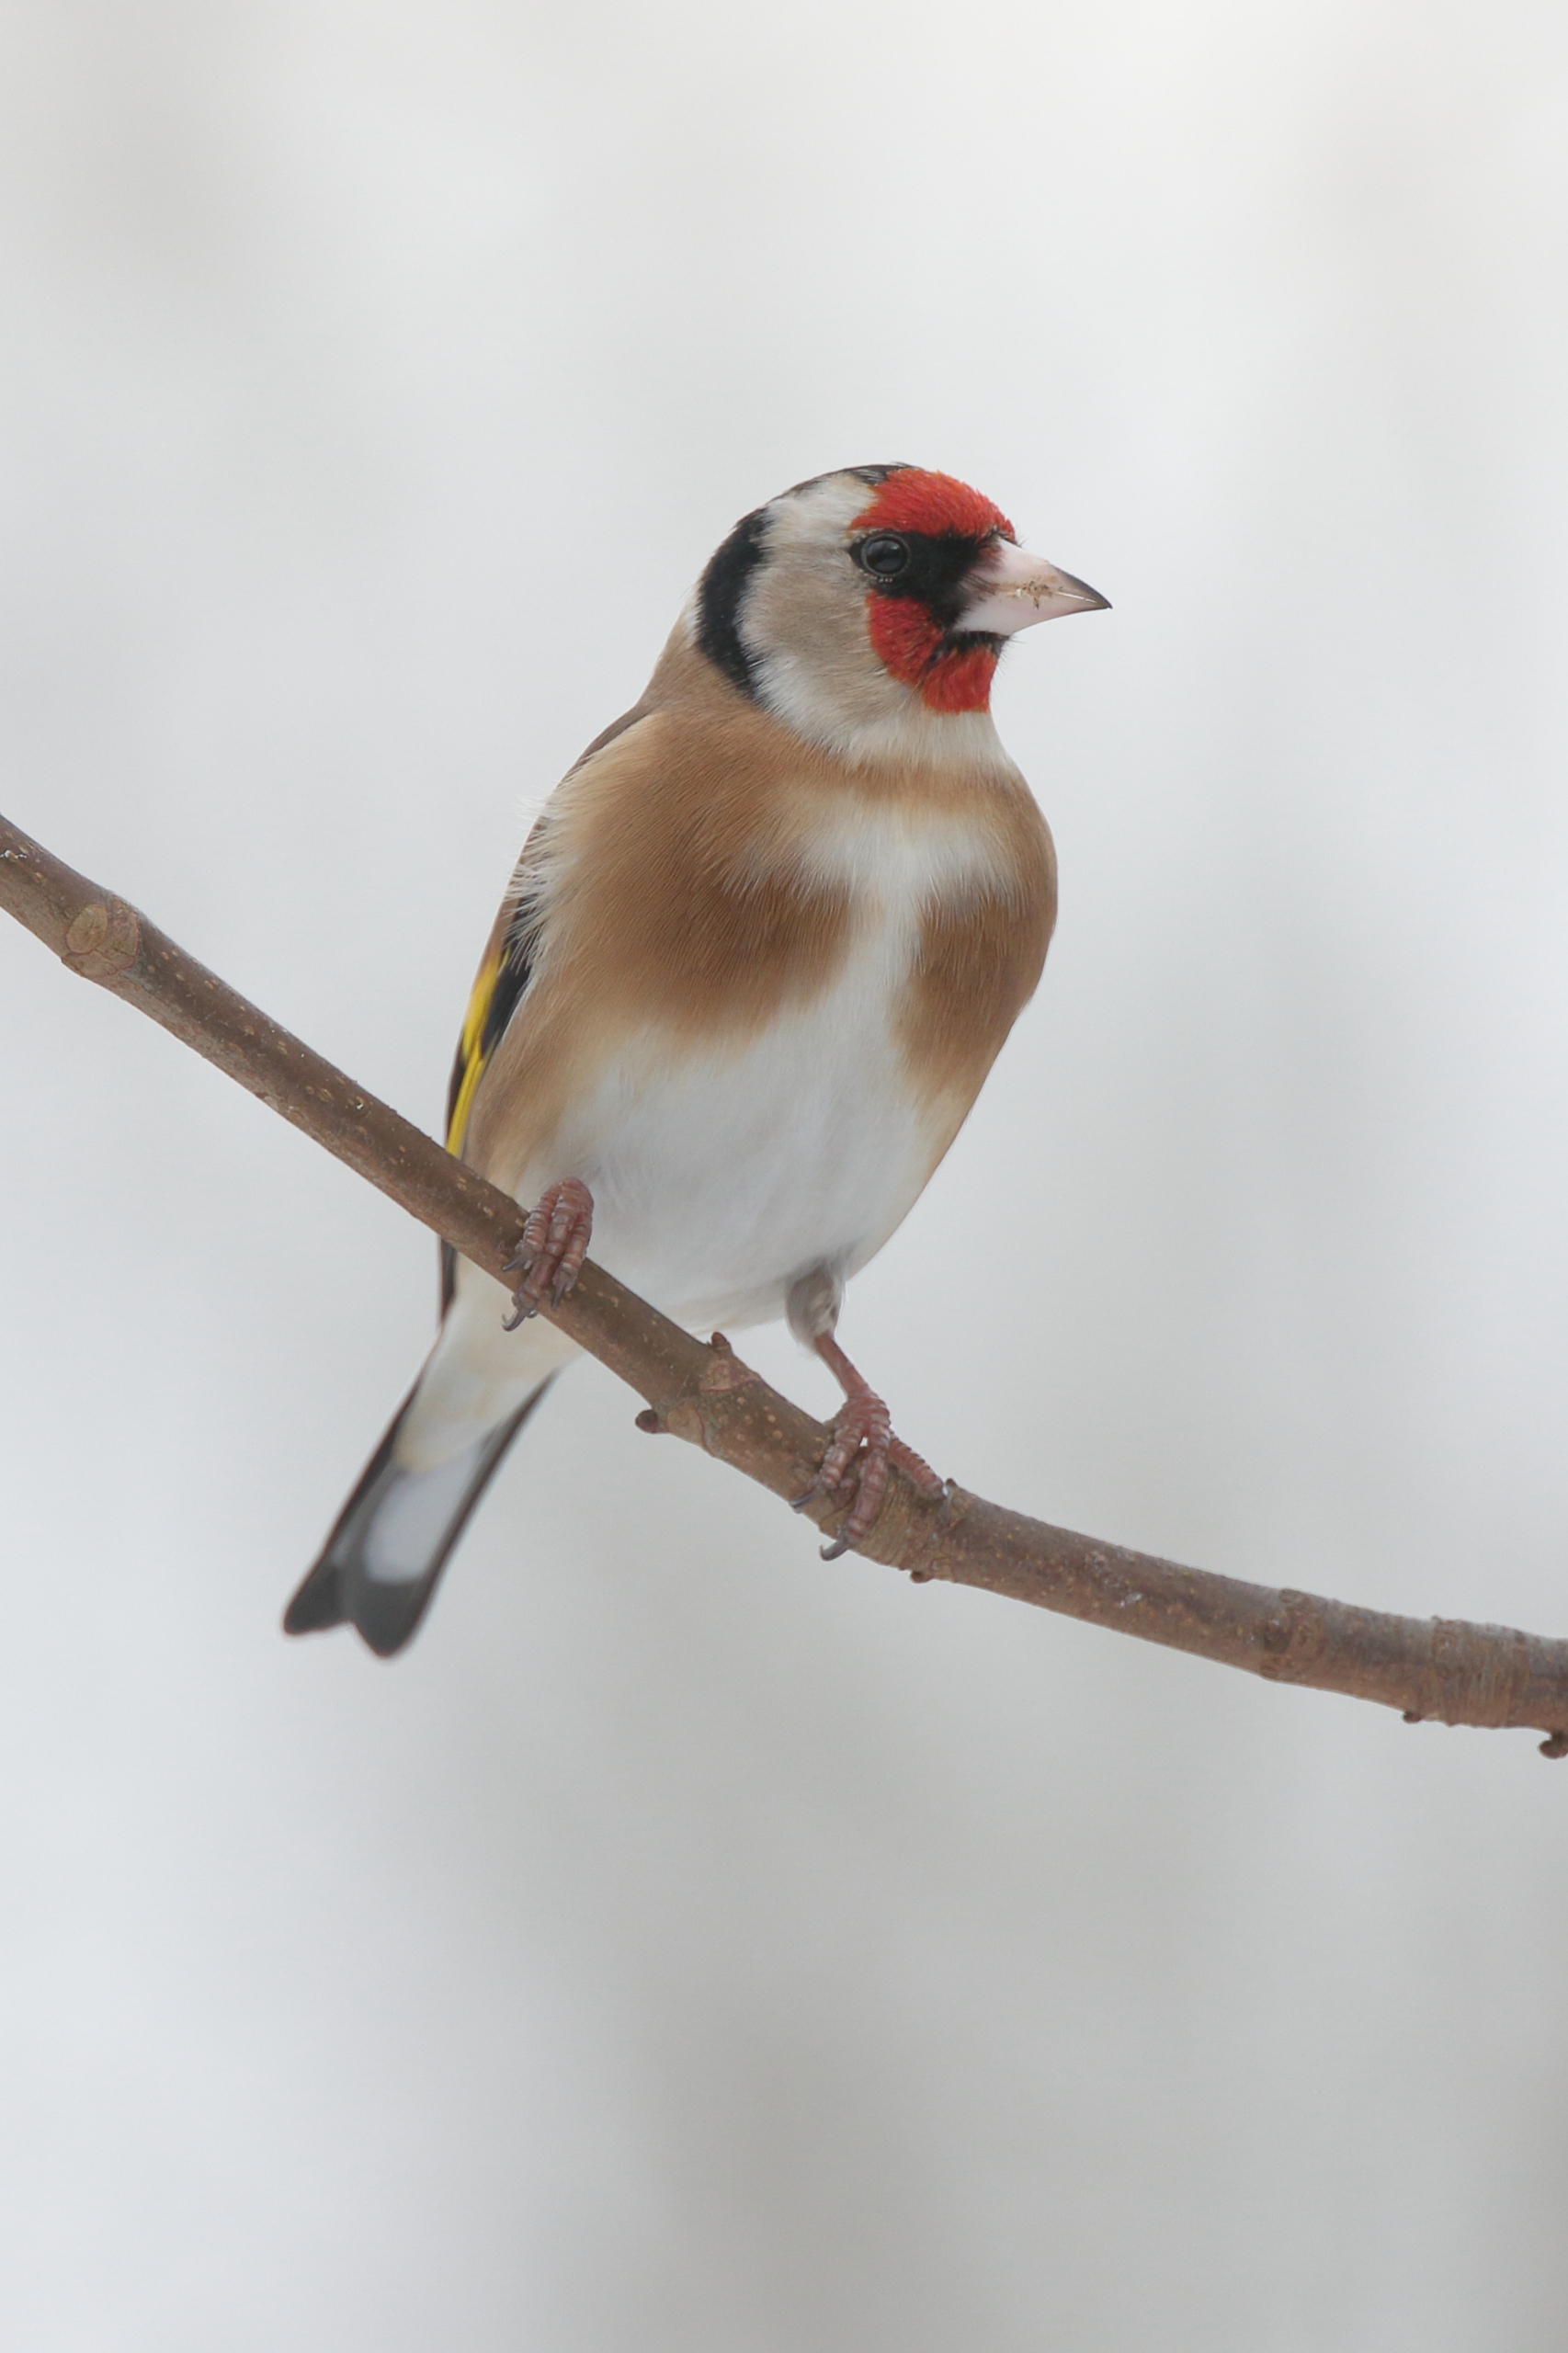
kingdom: Animalia
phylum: Chordata
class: Aves
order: Passeriformes
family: Fringillidae
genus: Carduelis
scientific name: Carduelis carduelis
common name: Stillits
